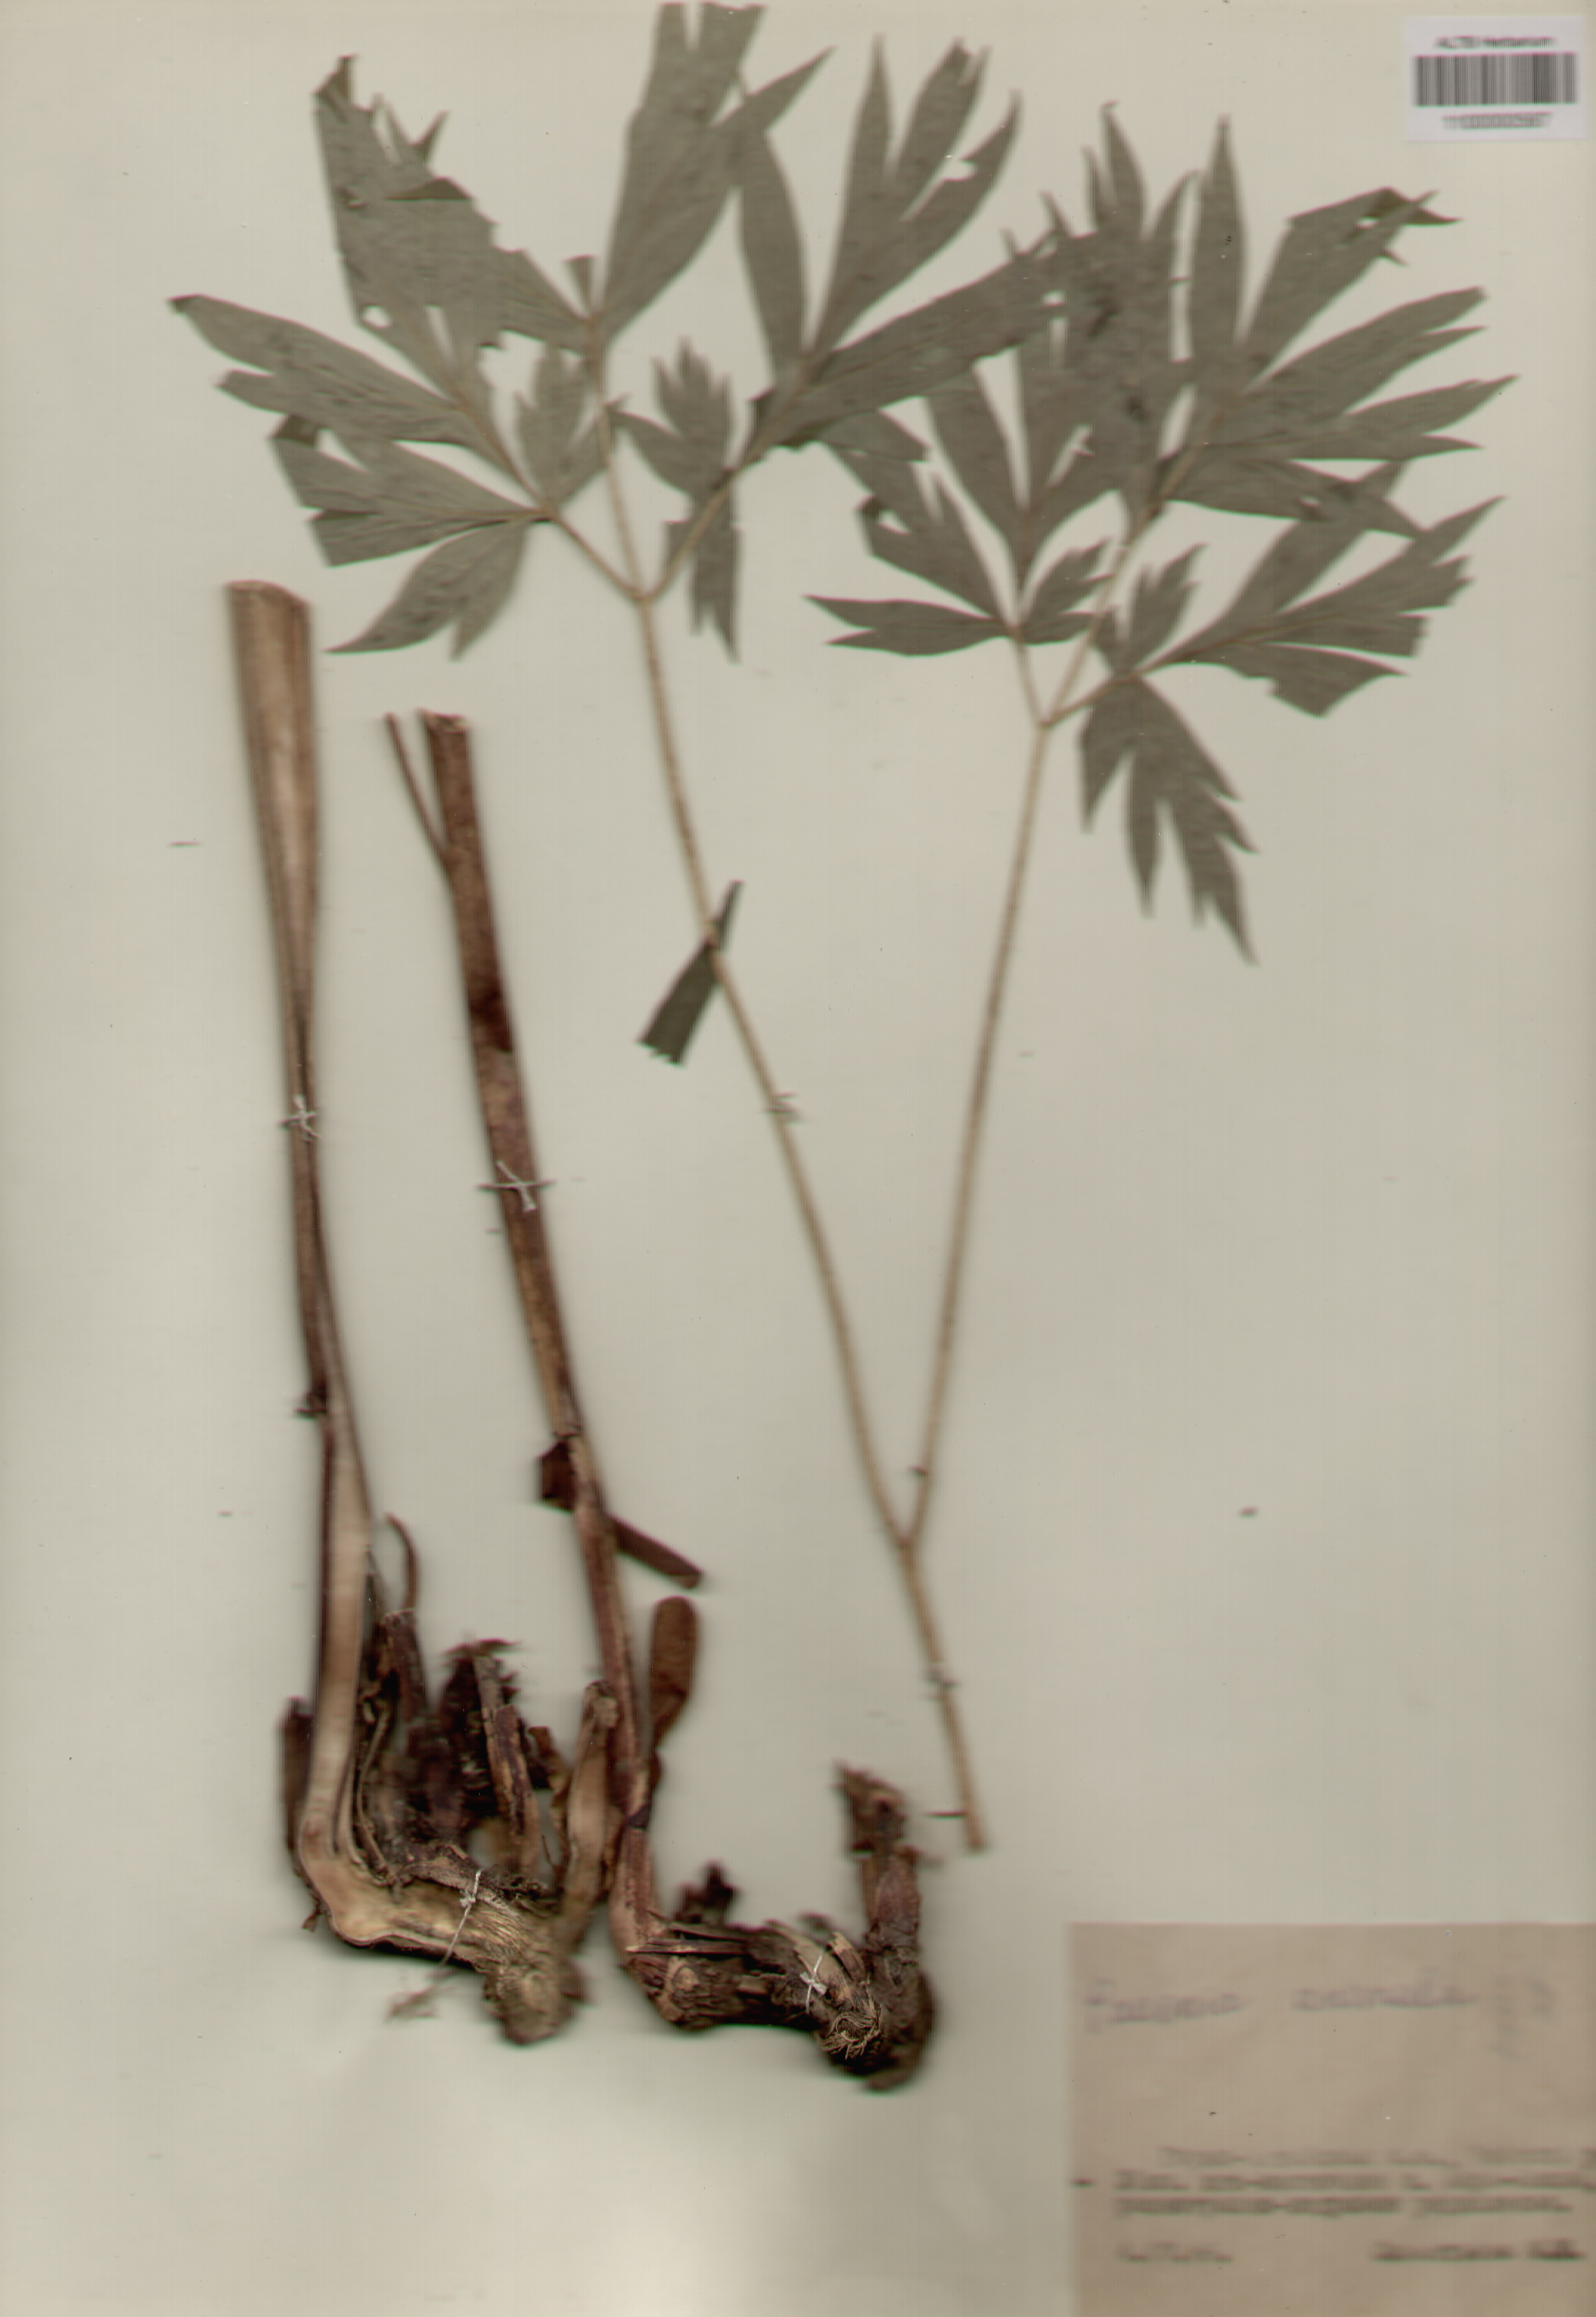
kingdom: Plantae
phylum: Tracheophyta
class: Magnoliopsida
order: Saxifragales
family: Paeoniaceae
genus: Paeonia
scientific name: Paeonia anomala
